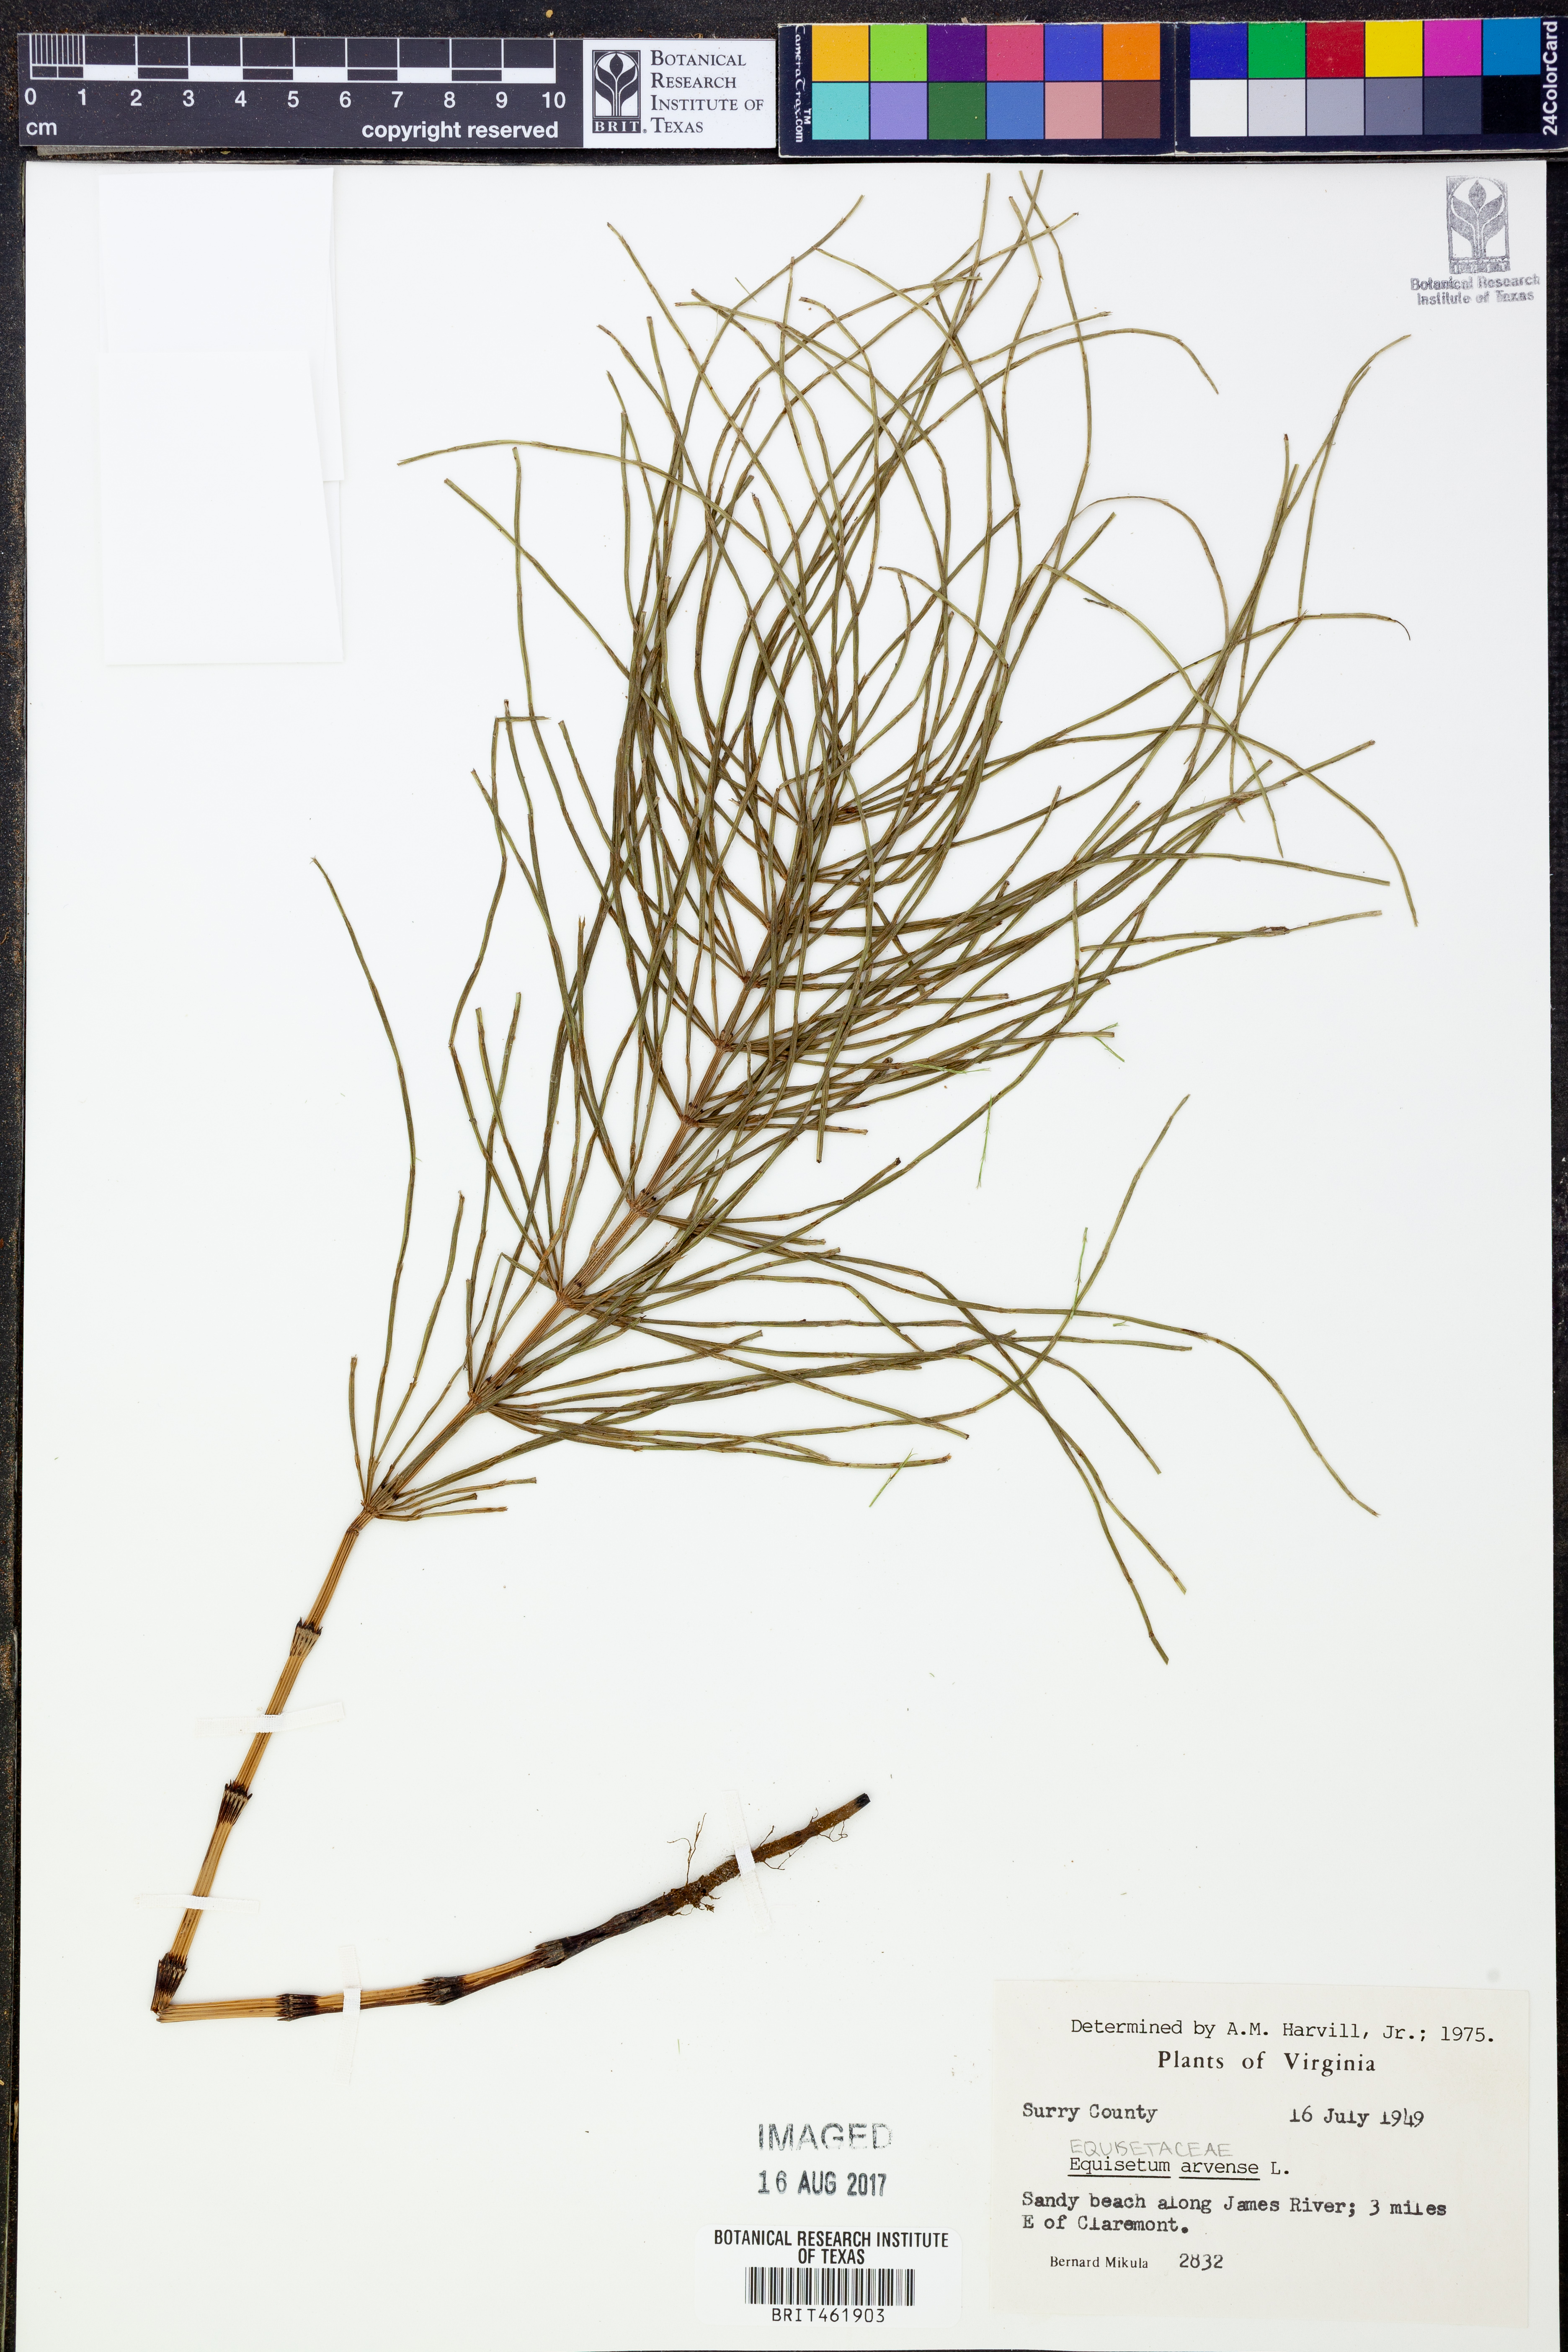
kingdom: Plantae
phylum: Tracheophyta
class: Polypodiopsida
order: Equisetales
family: Equisetaceae
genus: Equisetum
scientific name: Equisetum arvense
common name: Field horsetail
